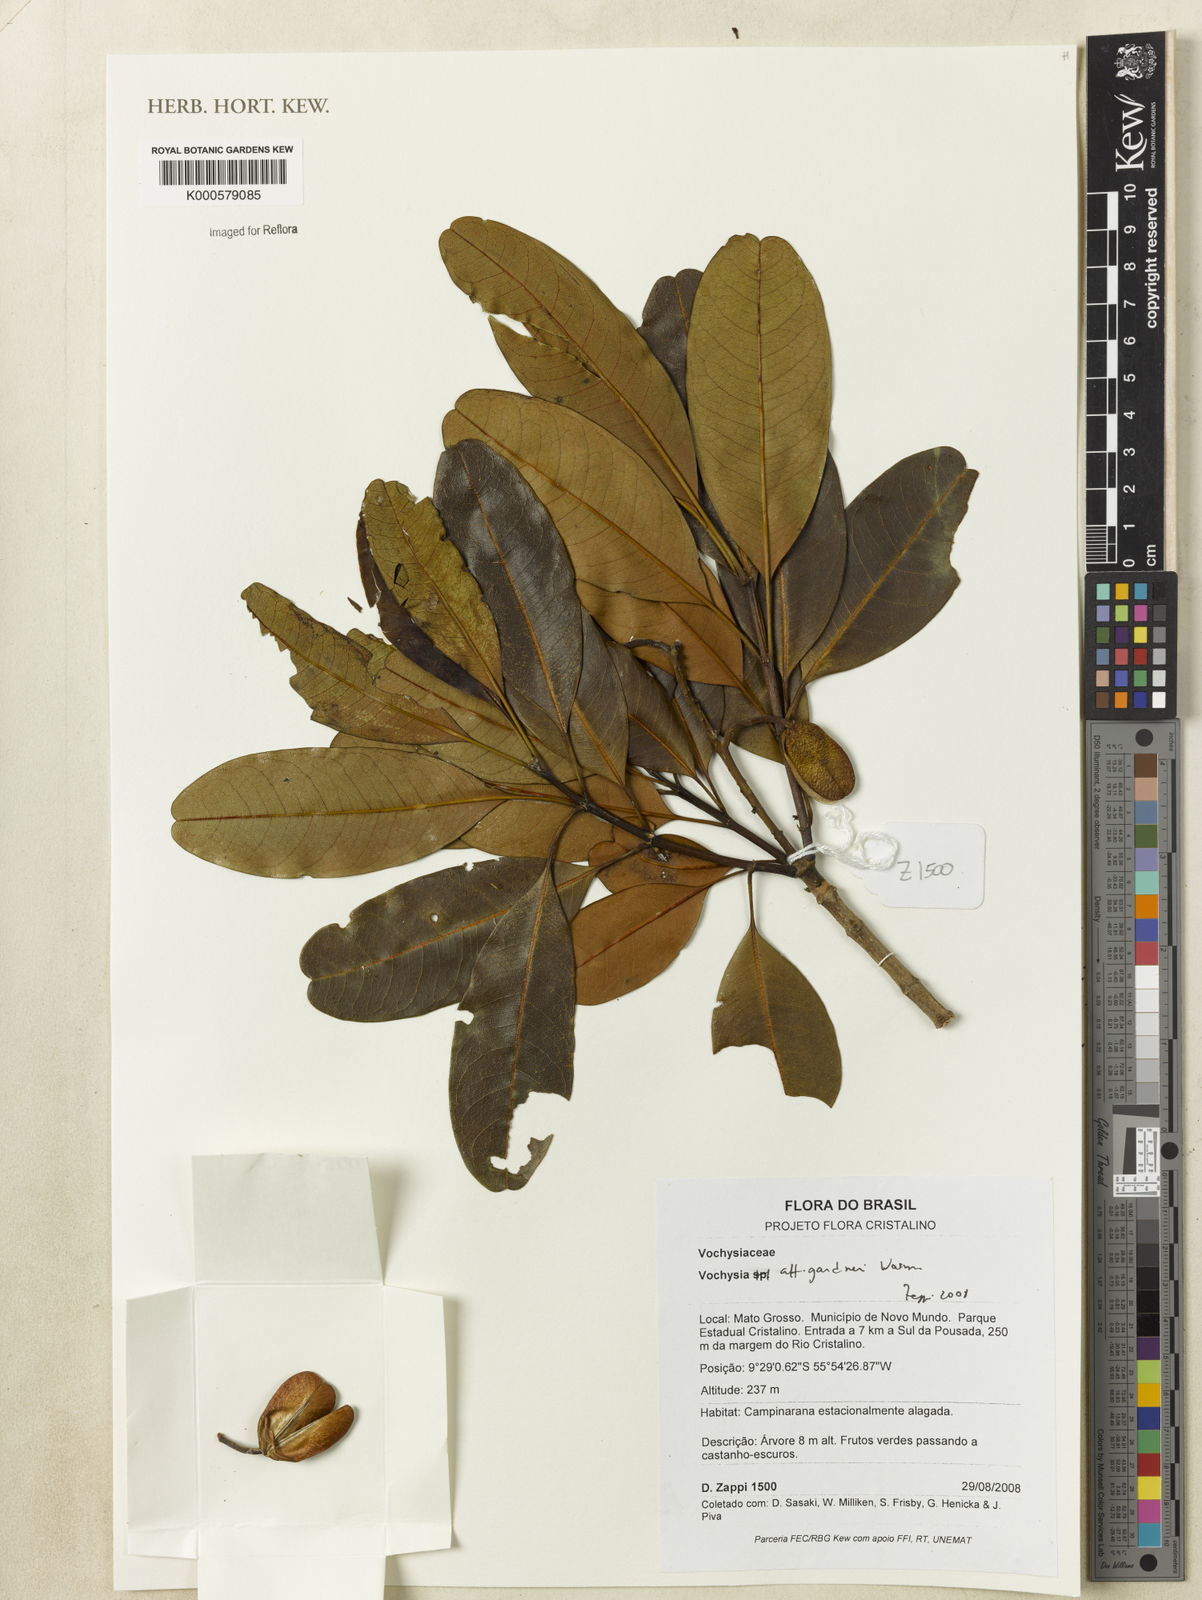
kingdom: Plantae
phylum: Tracheophyta
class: Magnoliopsida
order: Myrtales
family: Vochysiaceae
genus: Vochysia
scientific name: Vochysia gardneri
